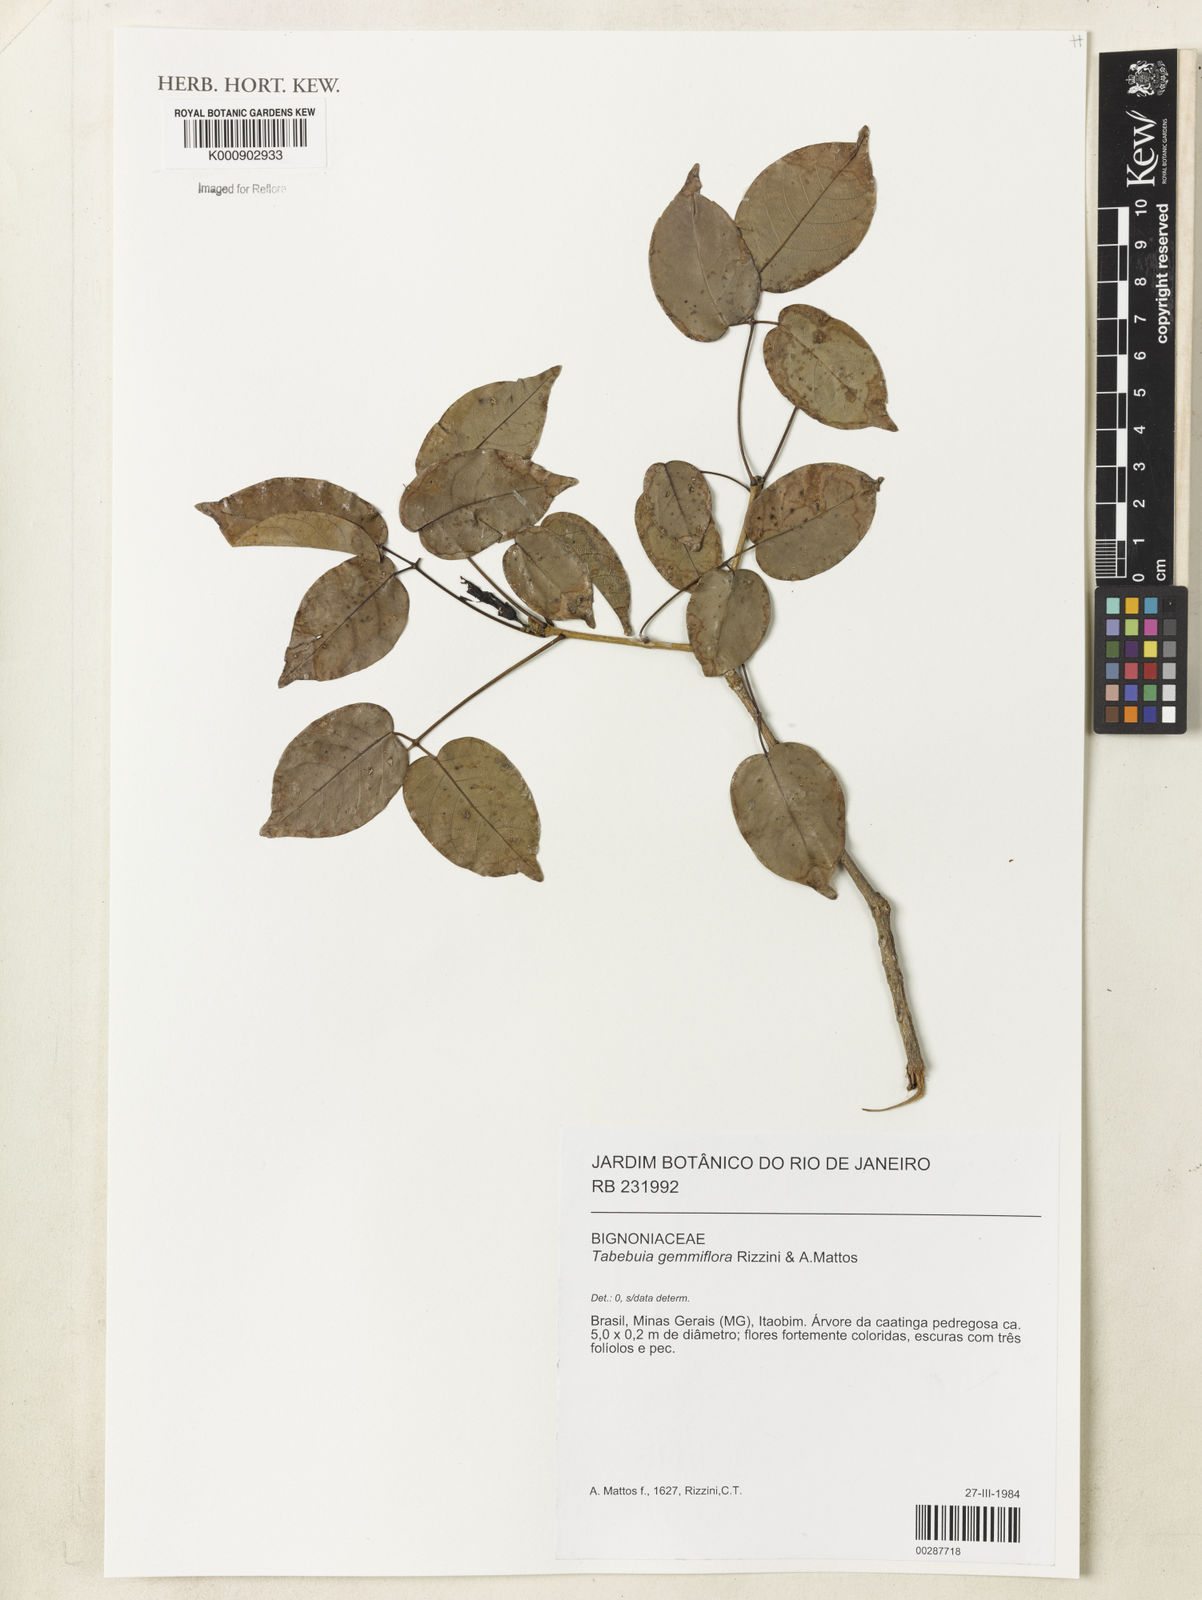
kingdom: Plantae
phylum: Tracheophyta
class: Magnoliopsida
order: Lamiales
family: Bignoniaceae
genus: Tabebuia
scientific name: Tabebuia gemmiflora
